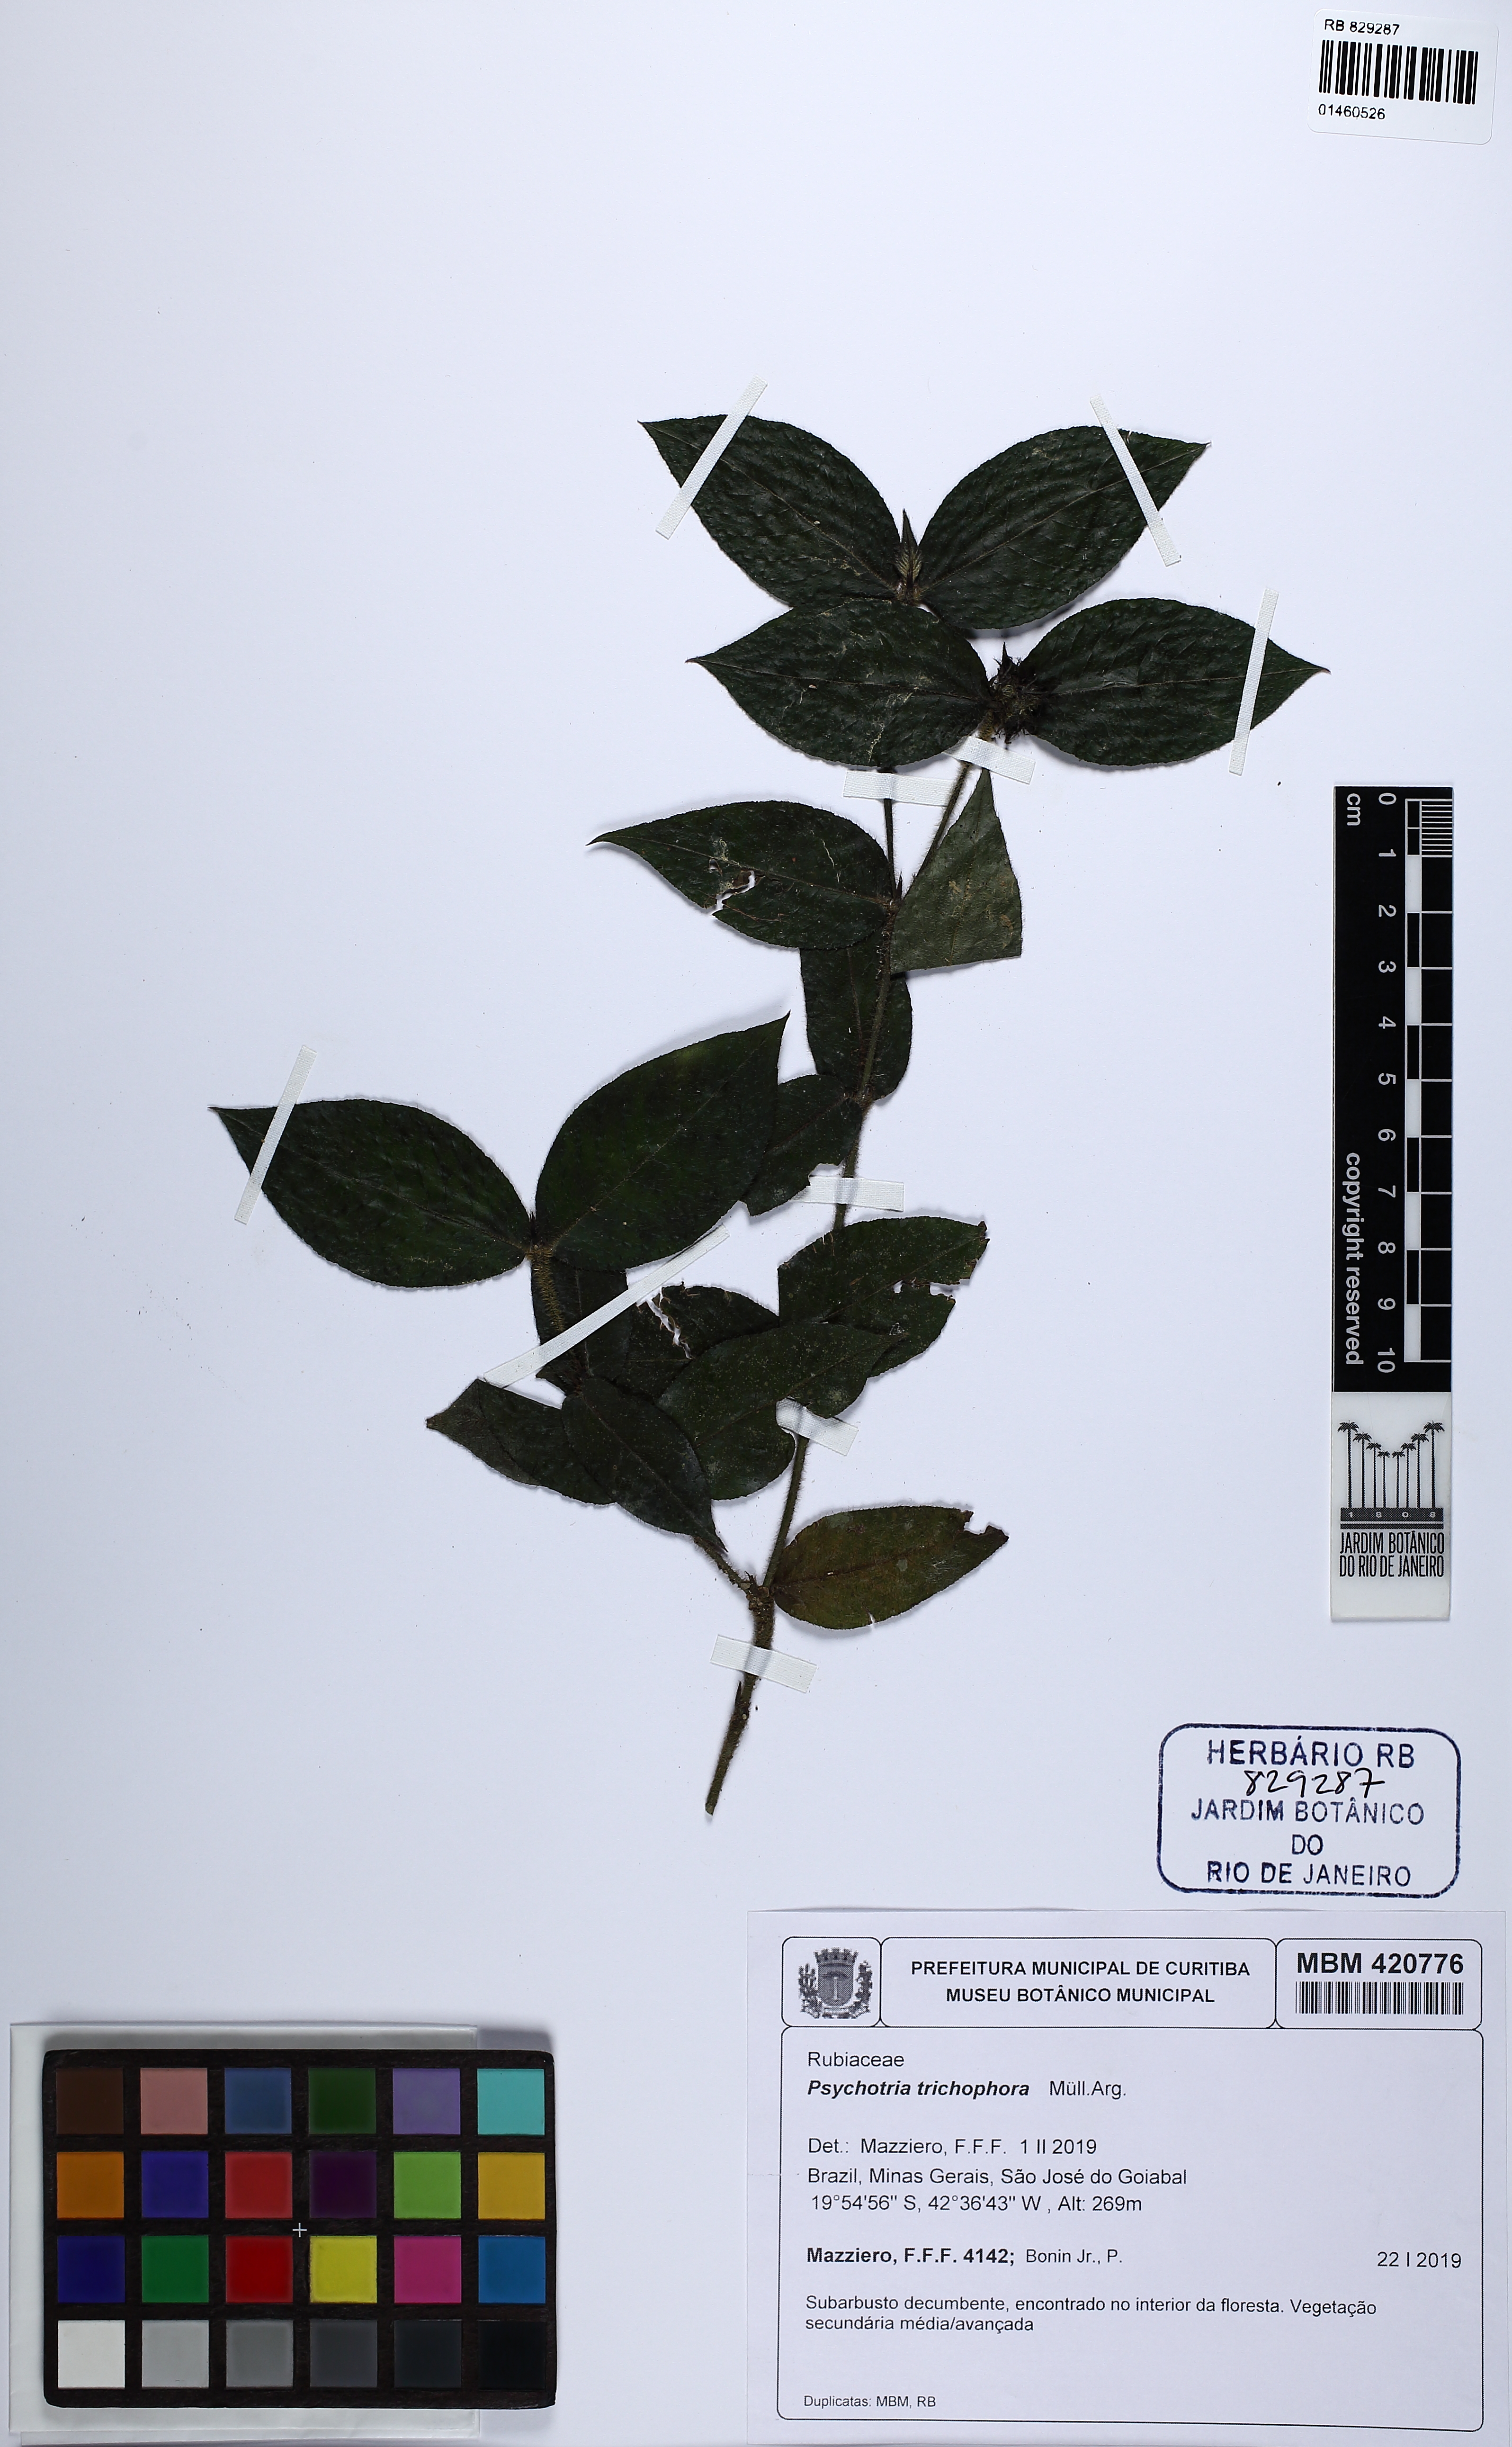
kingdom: Plantae
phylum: Tracheophyta
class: Magnoliopsida
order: Gentianales
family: Rubiaceae
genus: Palicourea
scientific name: Palicourea trichophora
